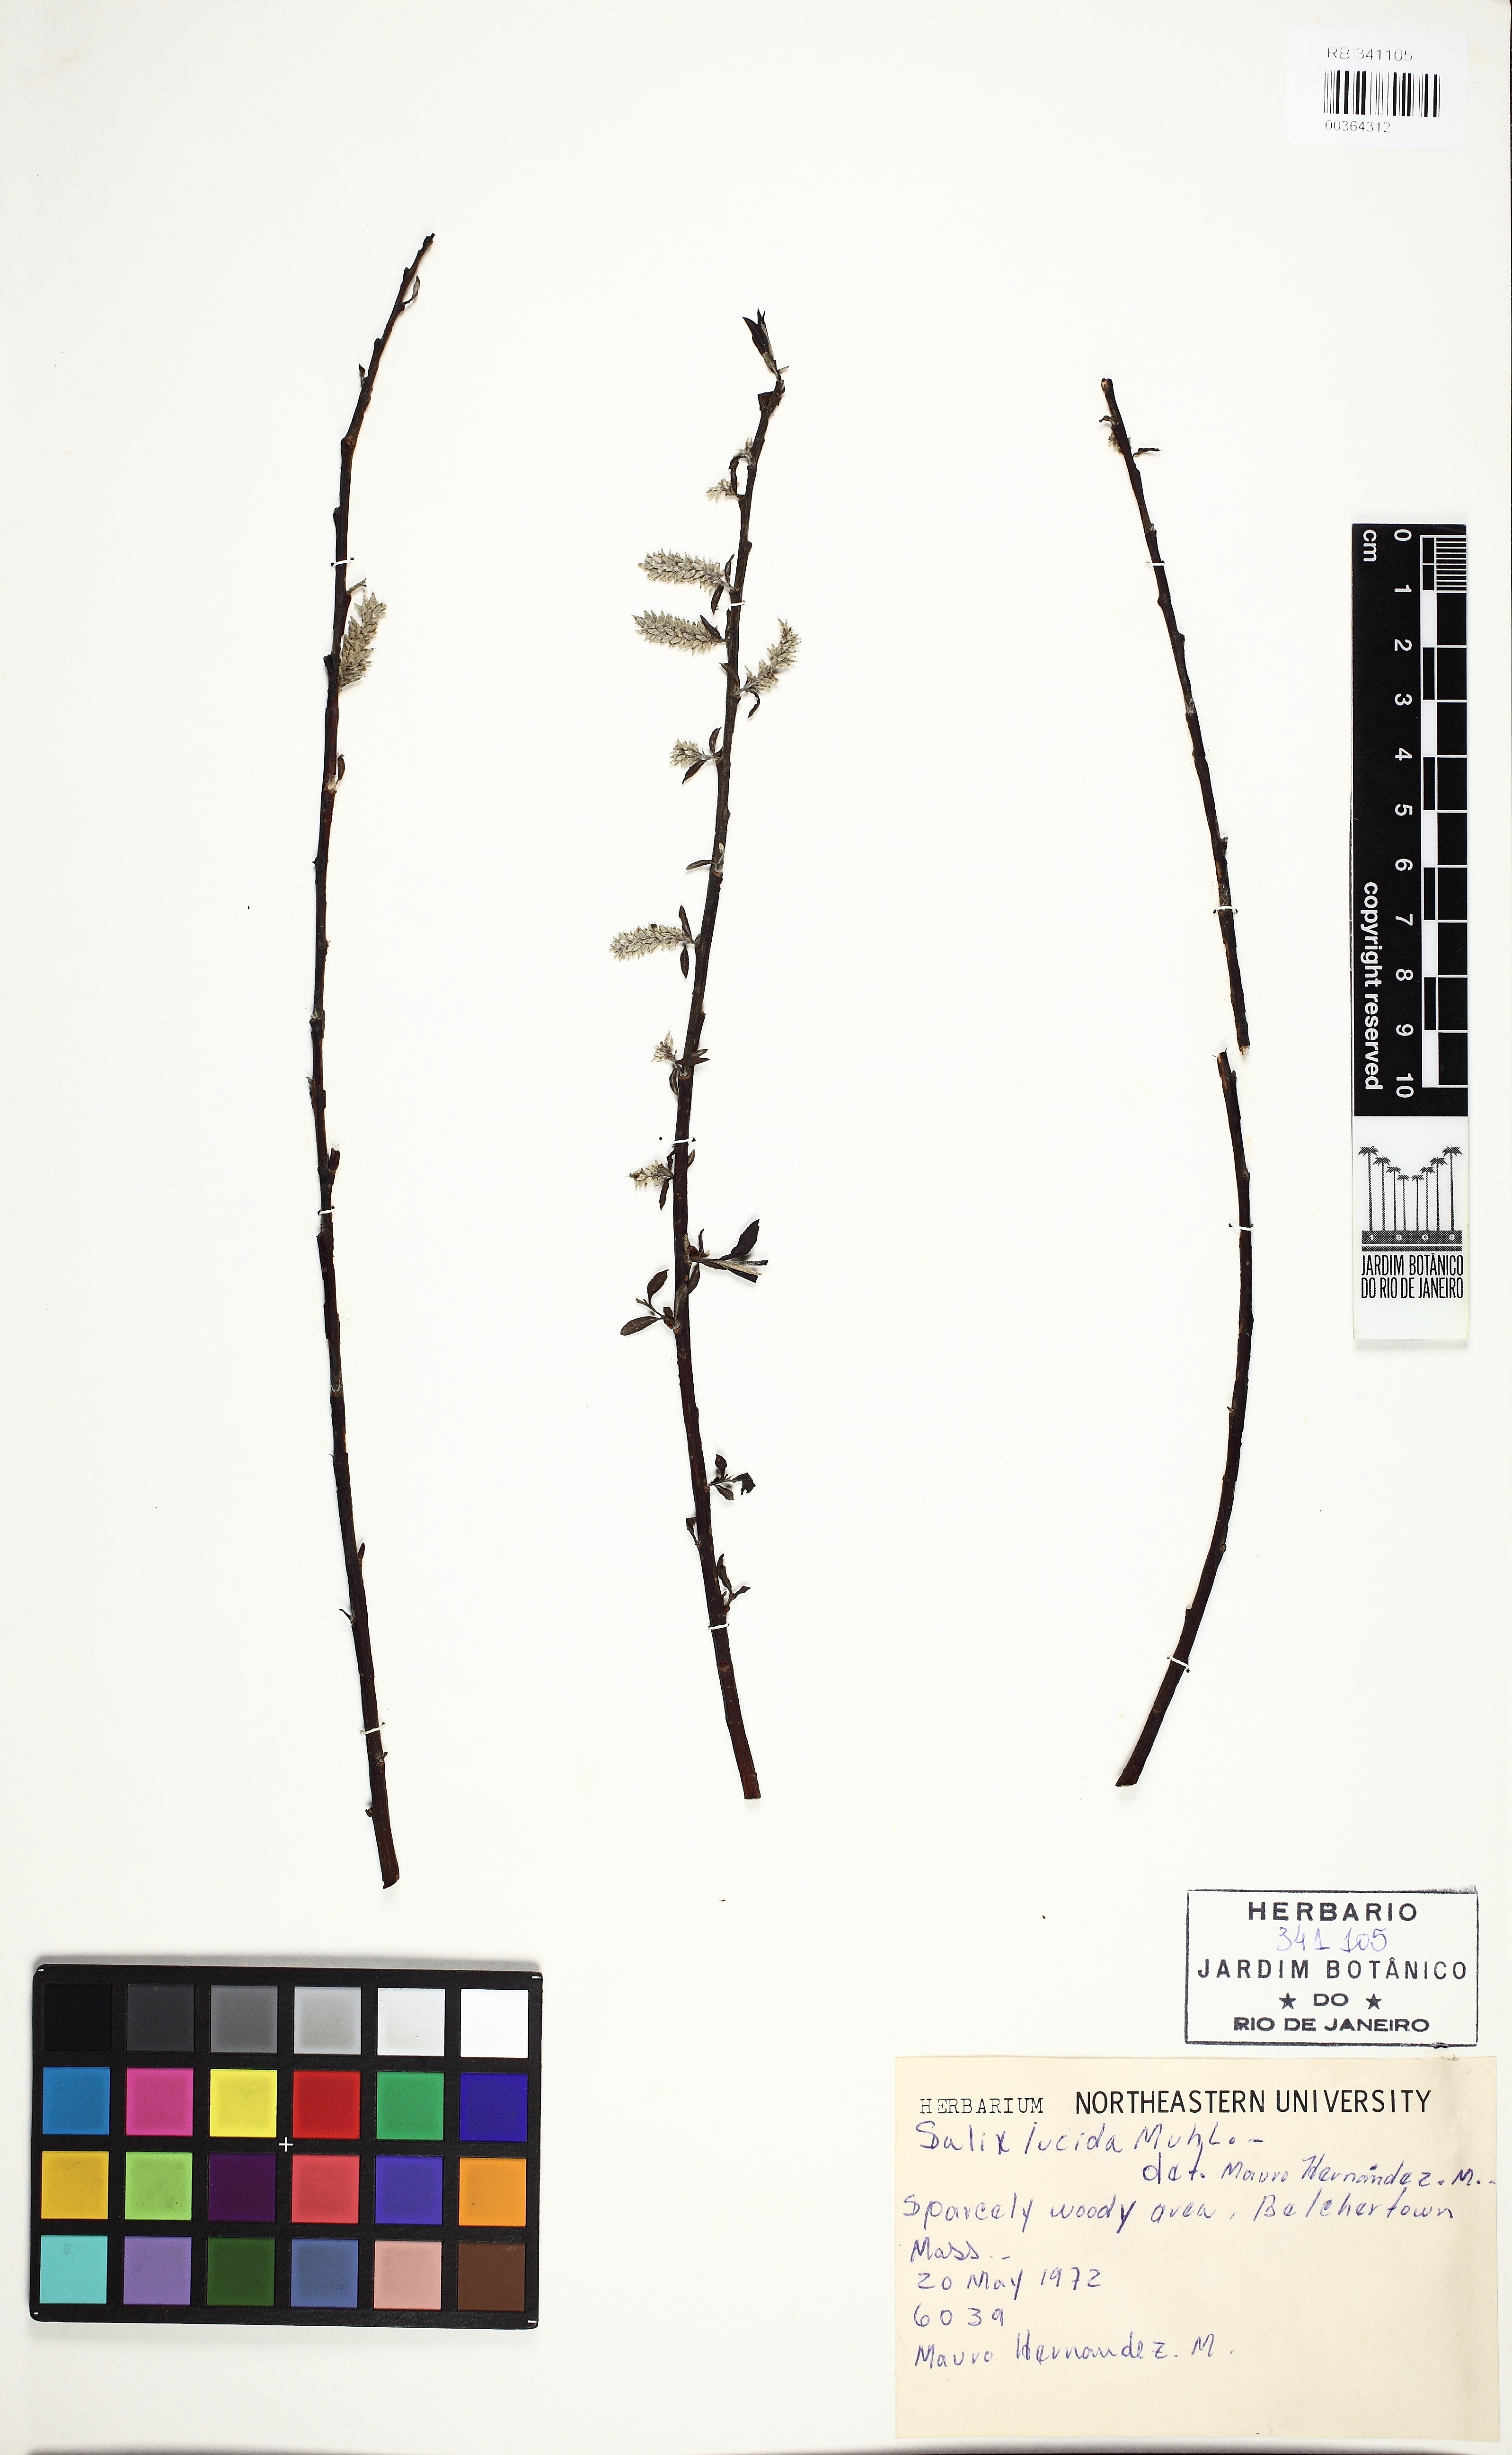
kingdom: Plantae
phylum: Tracheophyta
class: Magnoliopsida
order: Malpighiales
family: Salicaceae
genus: Salix
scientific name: Salix lucida
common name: Shining willow
